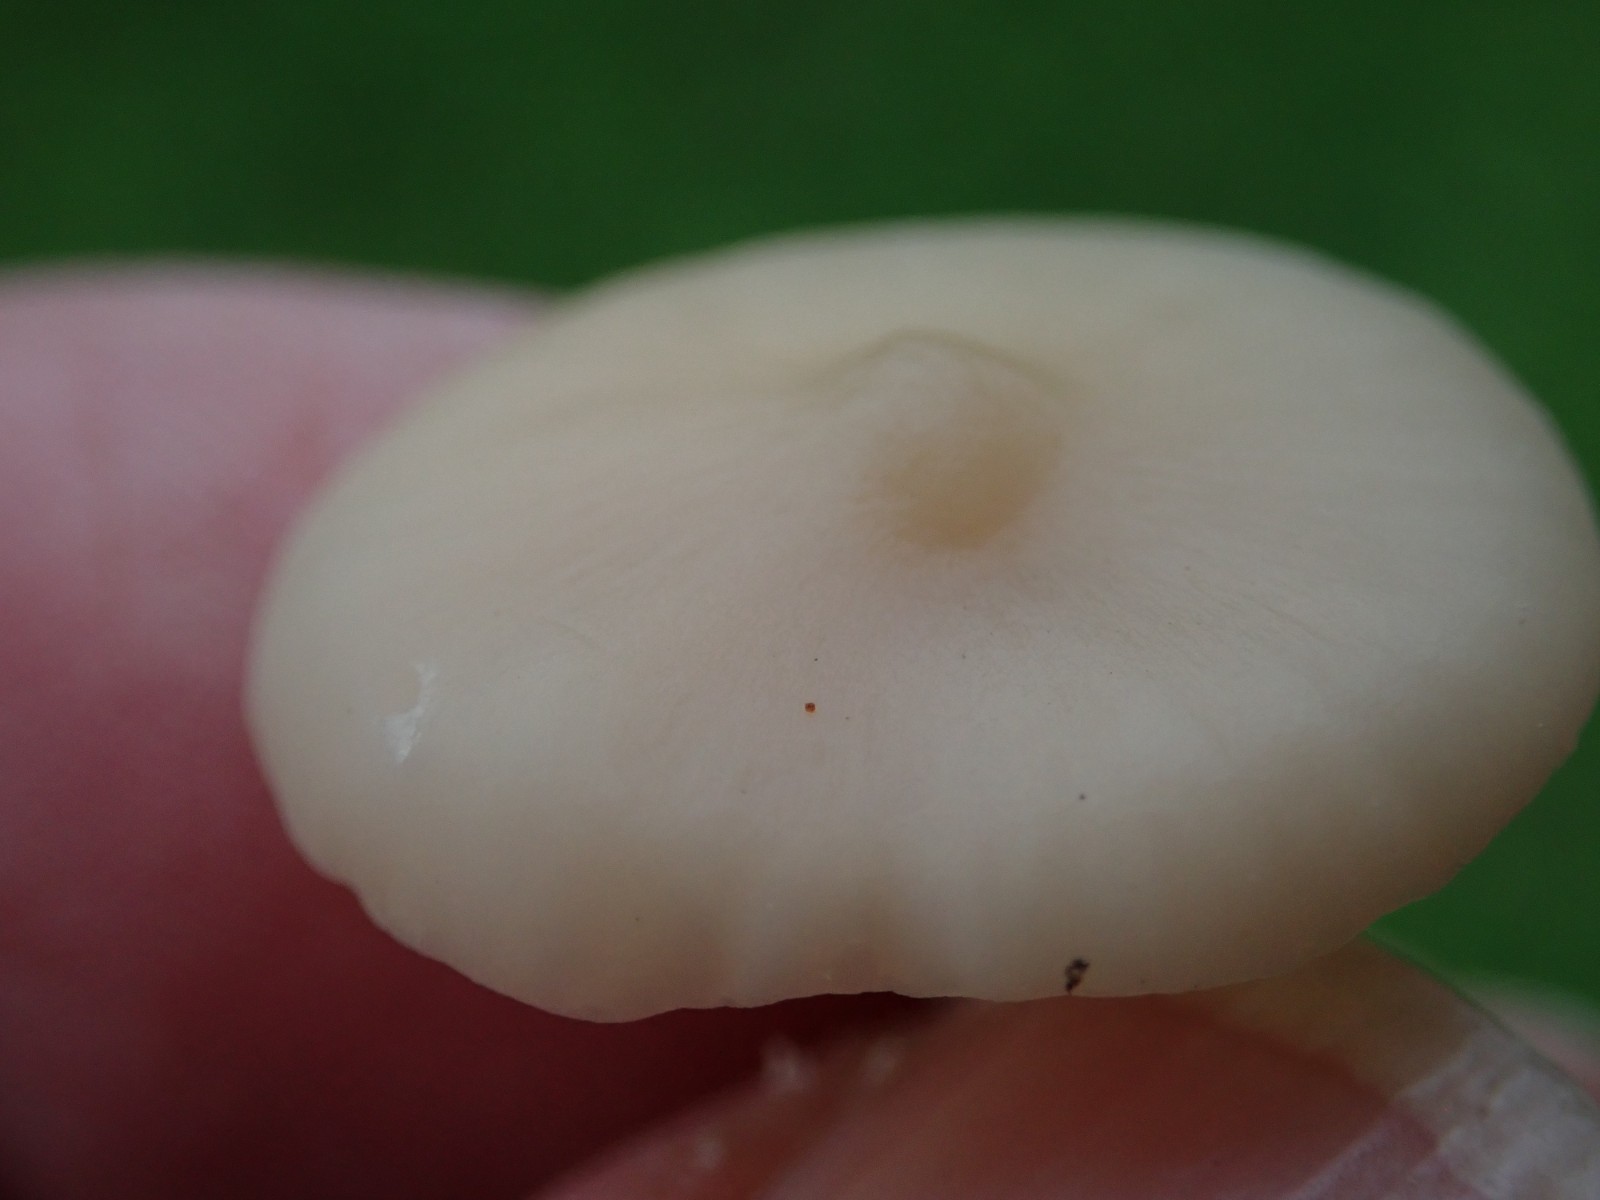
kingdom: Fungi
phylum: Basidiomycota
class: Agaricomycetes
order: Agaricales
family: Hygrophoraceae
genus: Cuphophyllus
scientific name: Cuphophyllus
